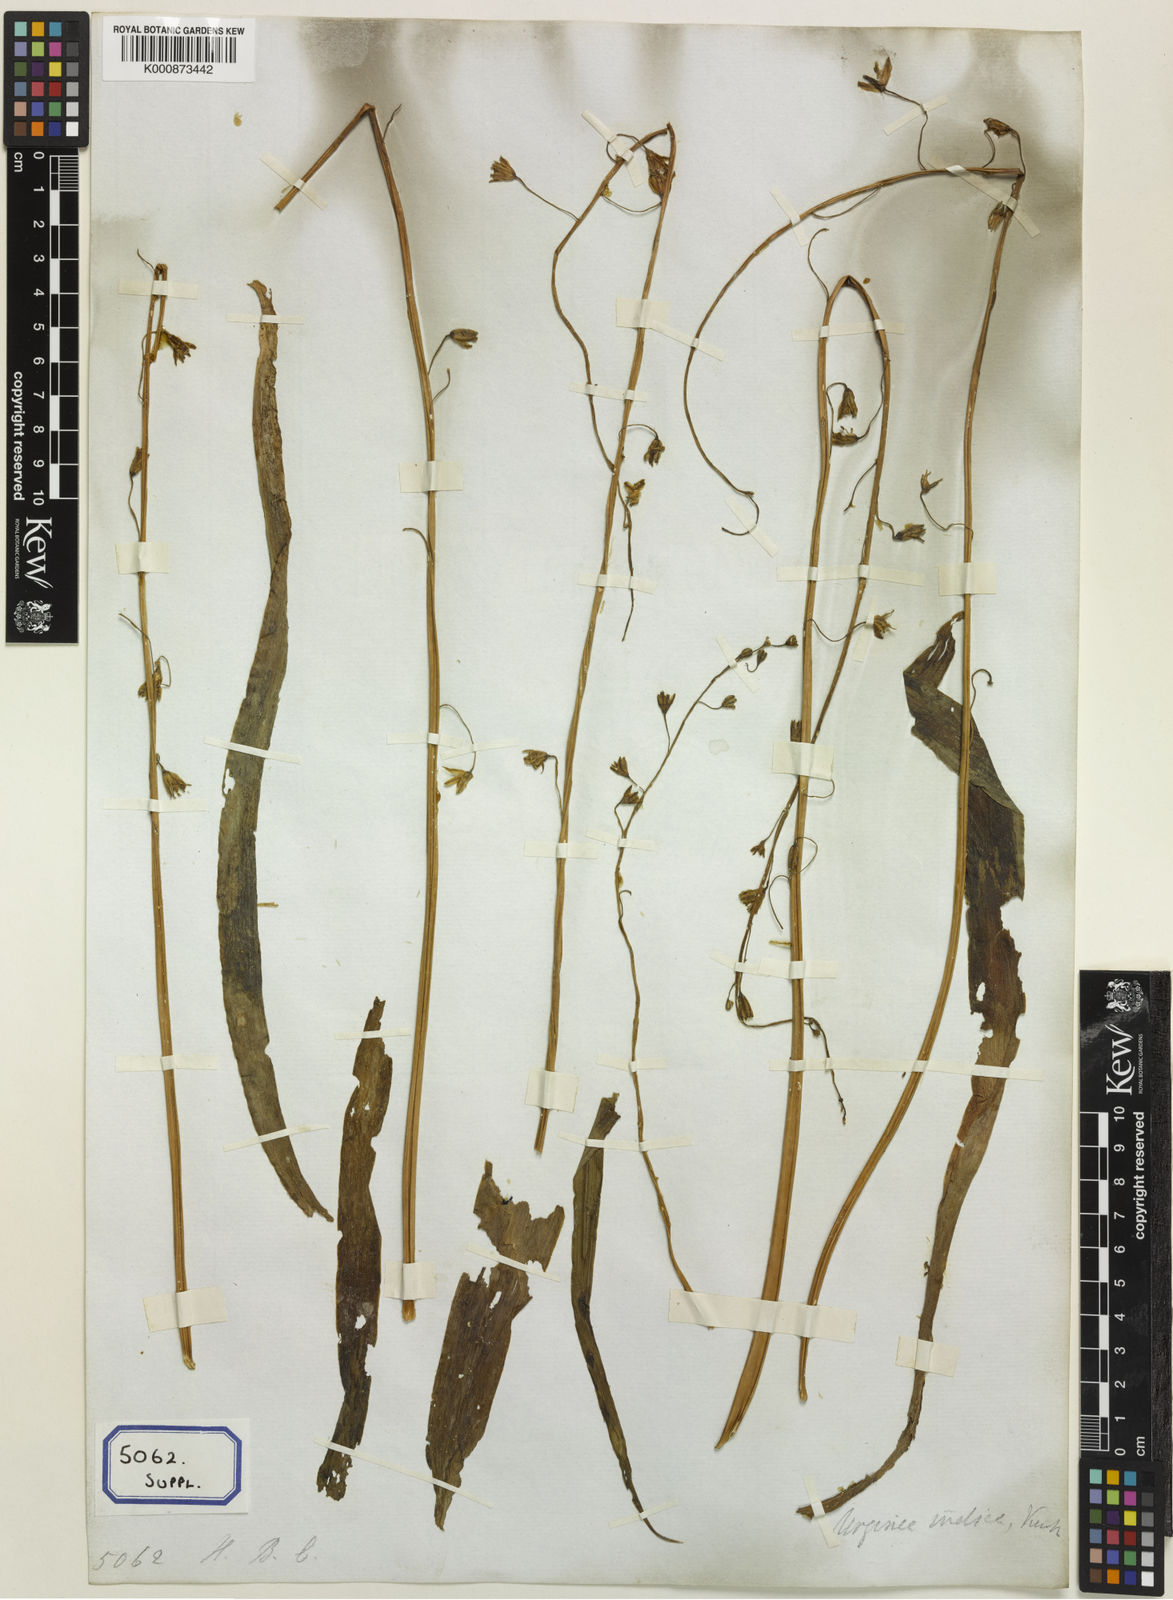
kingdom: Plantae
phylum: Tracheophyta
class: Liliopsida
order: Asparagales
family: Asparagaceae
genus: Drimia
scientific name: Drimia indica
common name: Indian-squill
